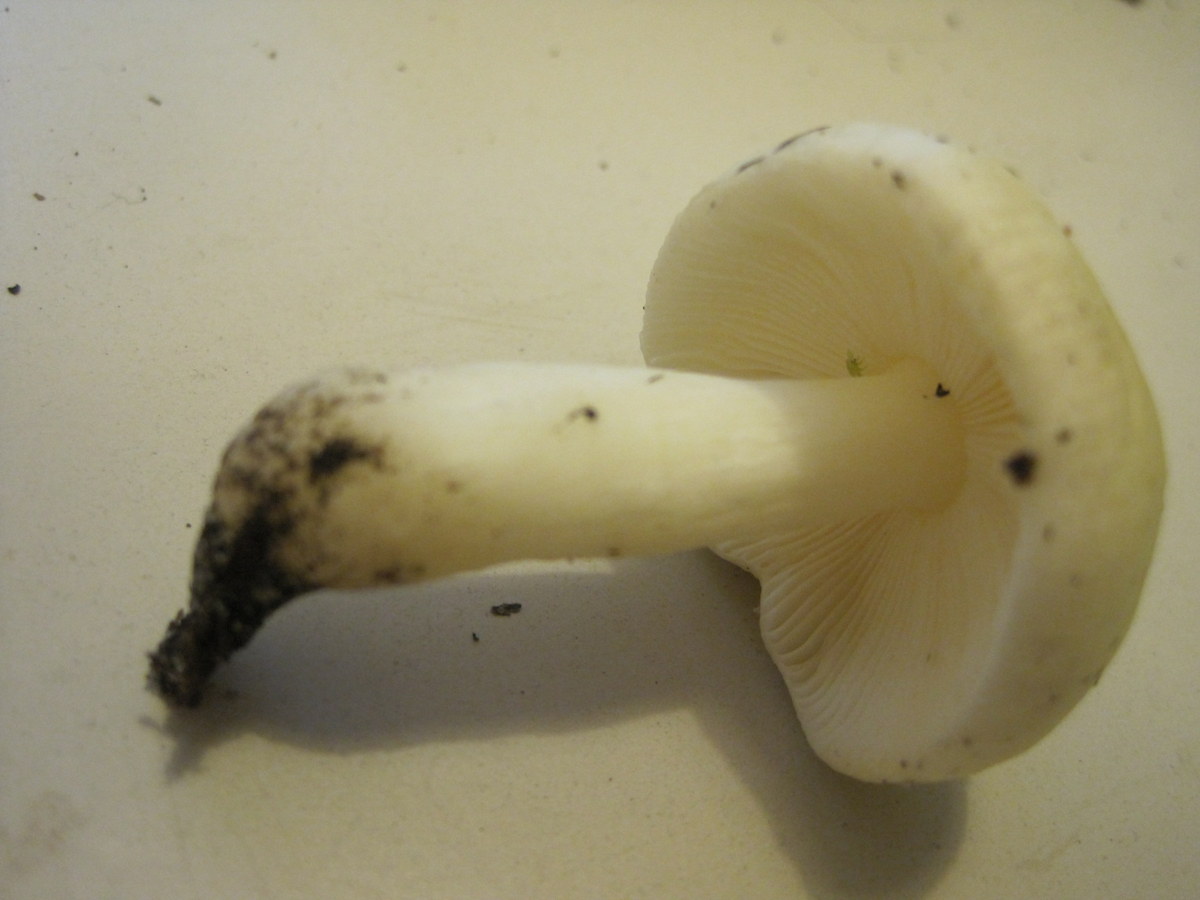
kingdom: Fungi
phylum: Basidiomycota
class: Agaricomycetes
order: Russulales
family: Russulaceae
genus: Russula
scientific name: Russula fragilis
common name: Fragile brittlegill
